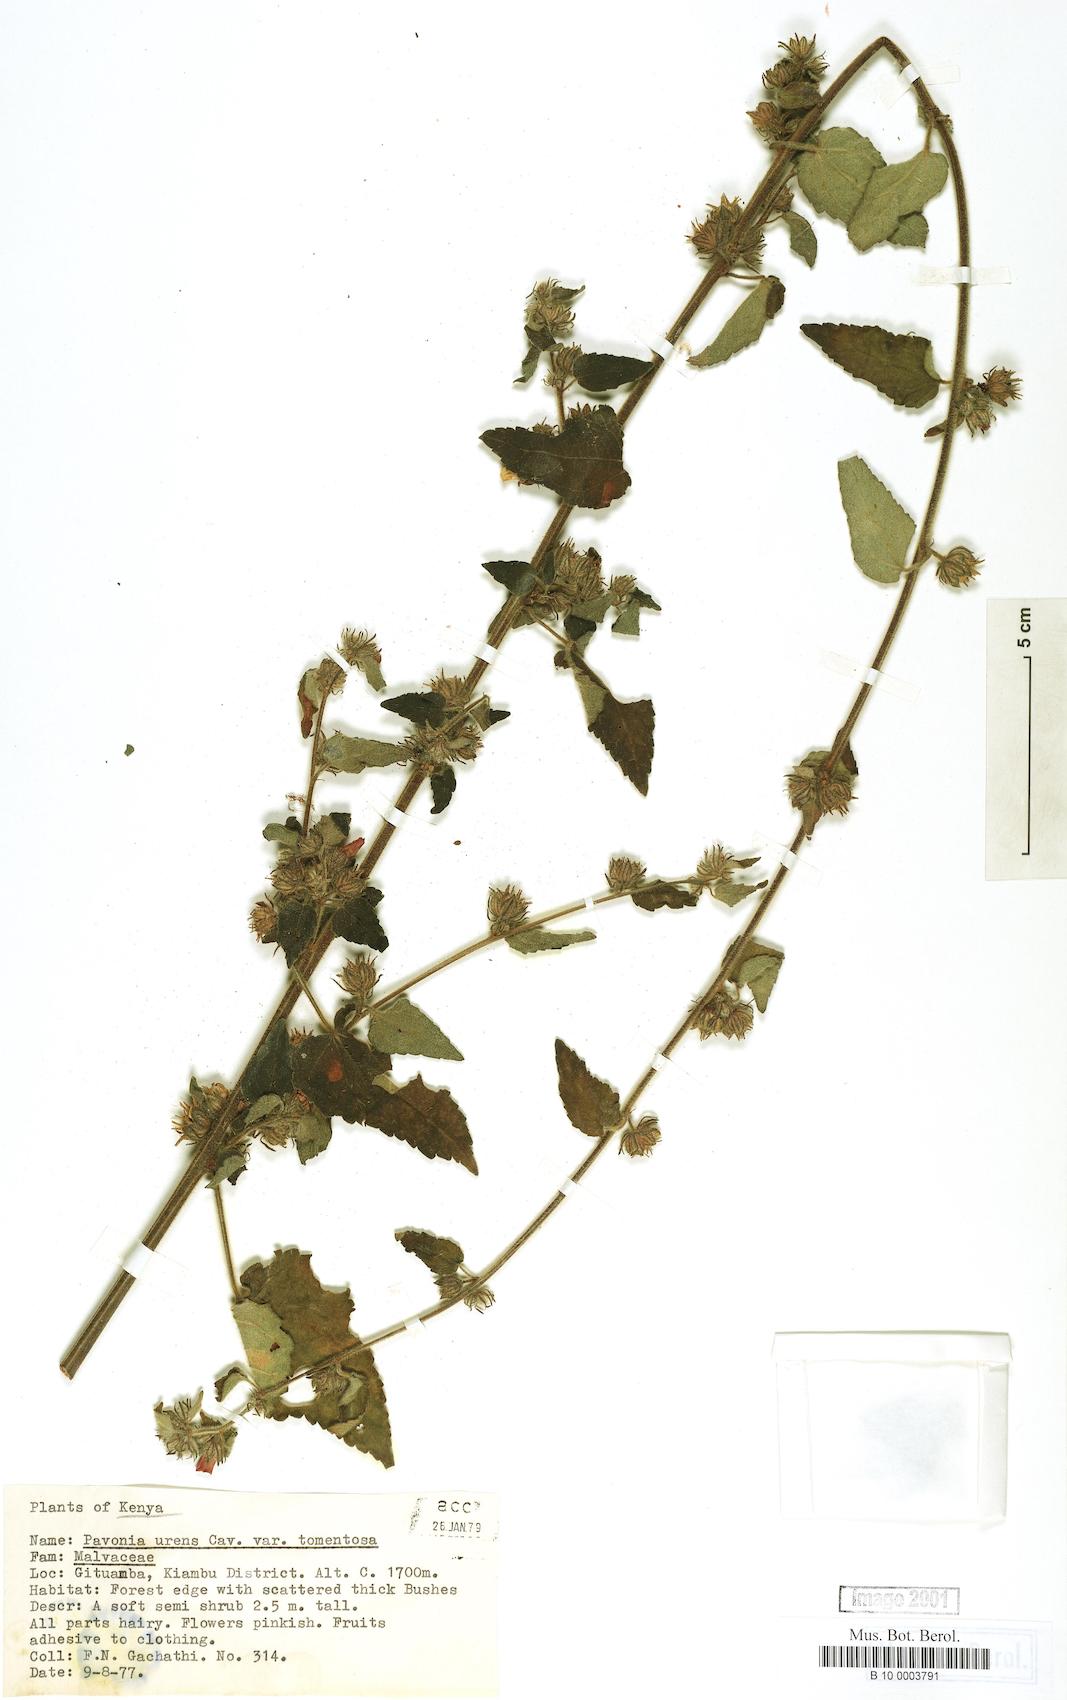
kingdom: Plantae
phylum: Tracheophyta
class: Magnoliopsida
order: Malvales
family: Malvaceae
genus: Pavonia
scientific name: Pavonia urens
